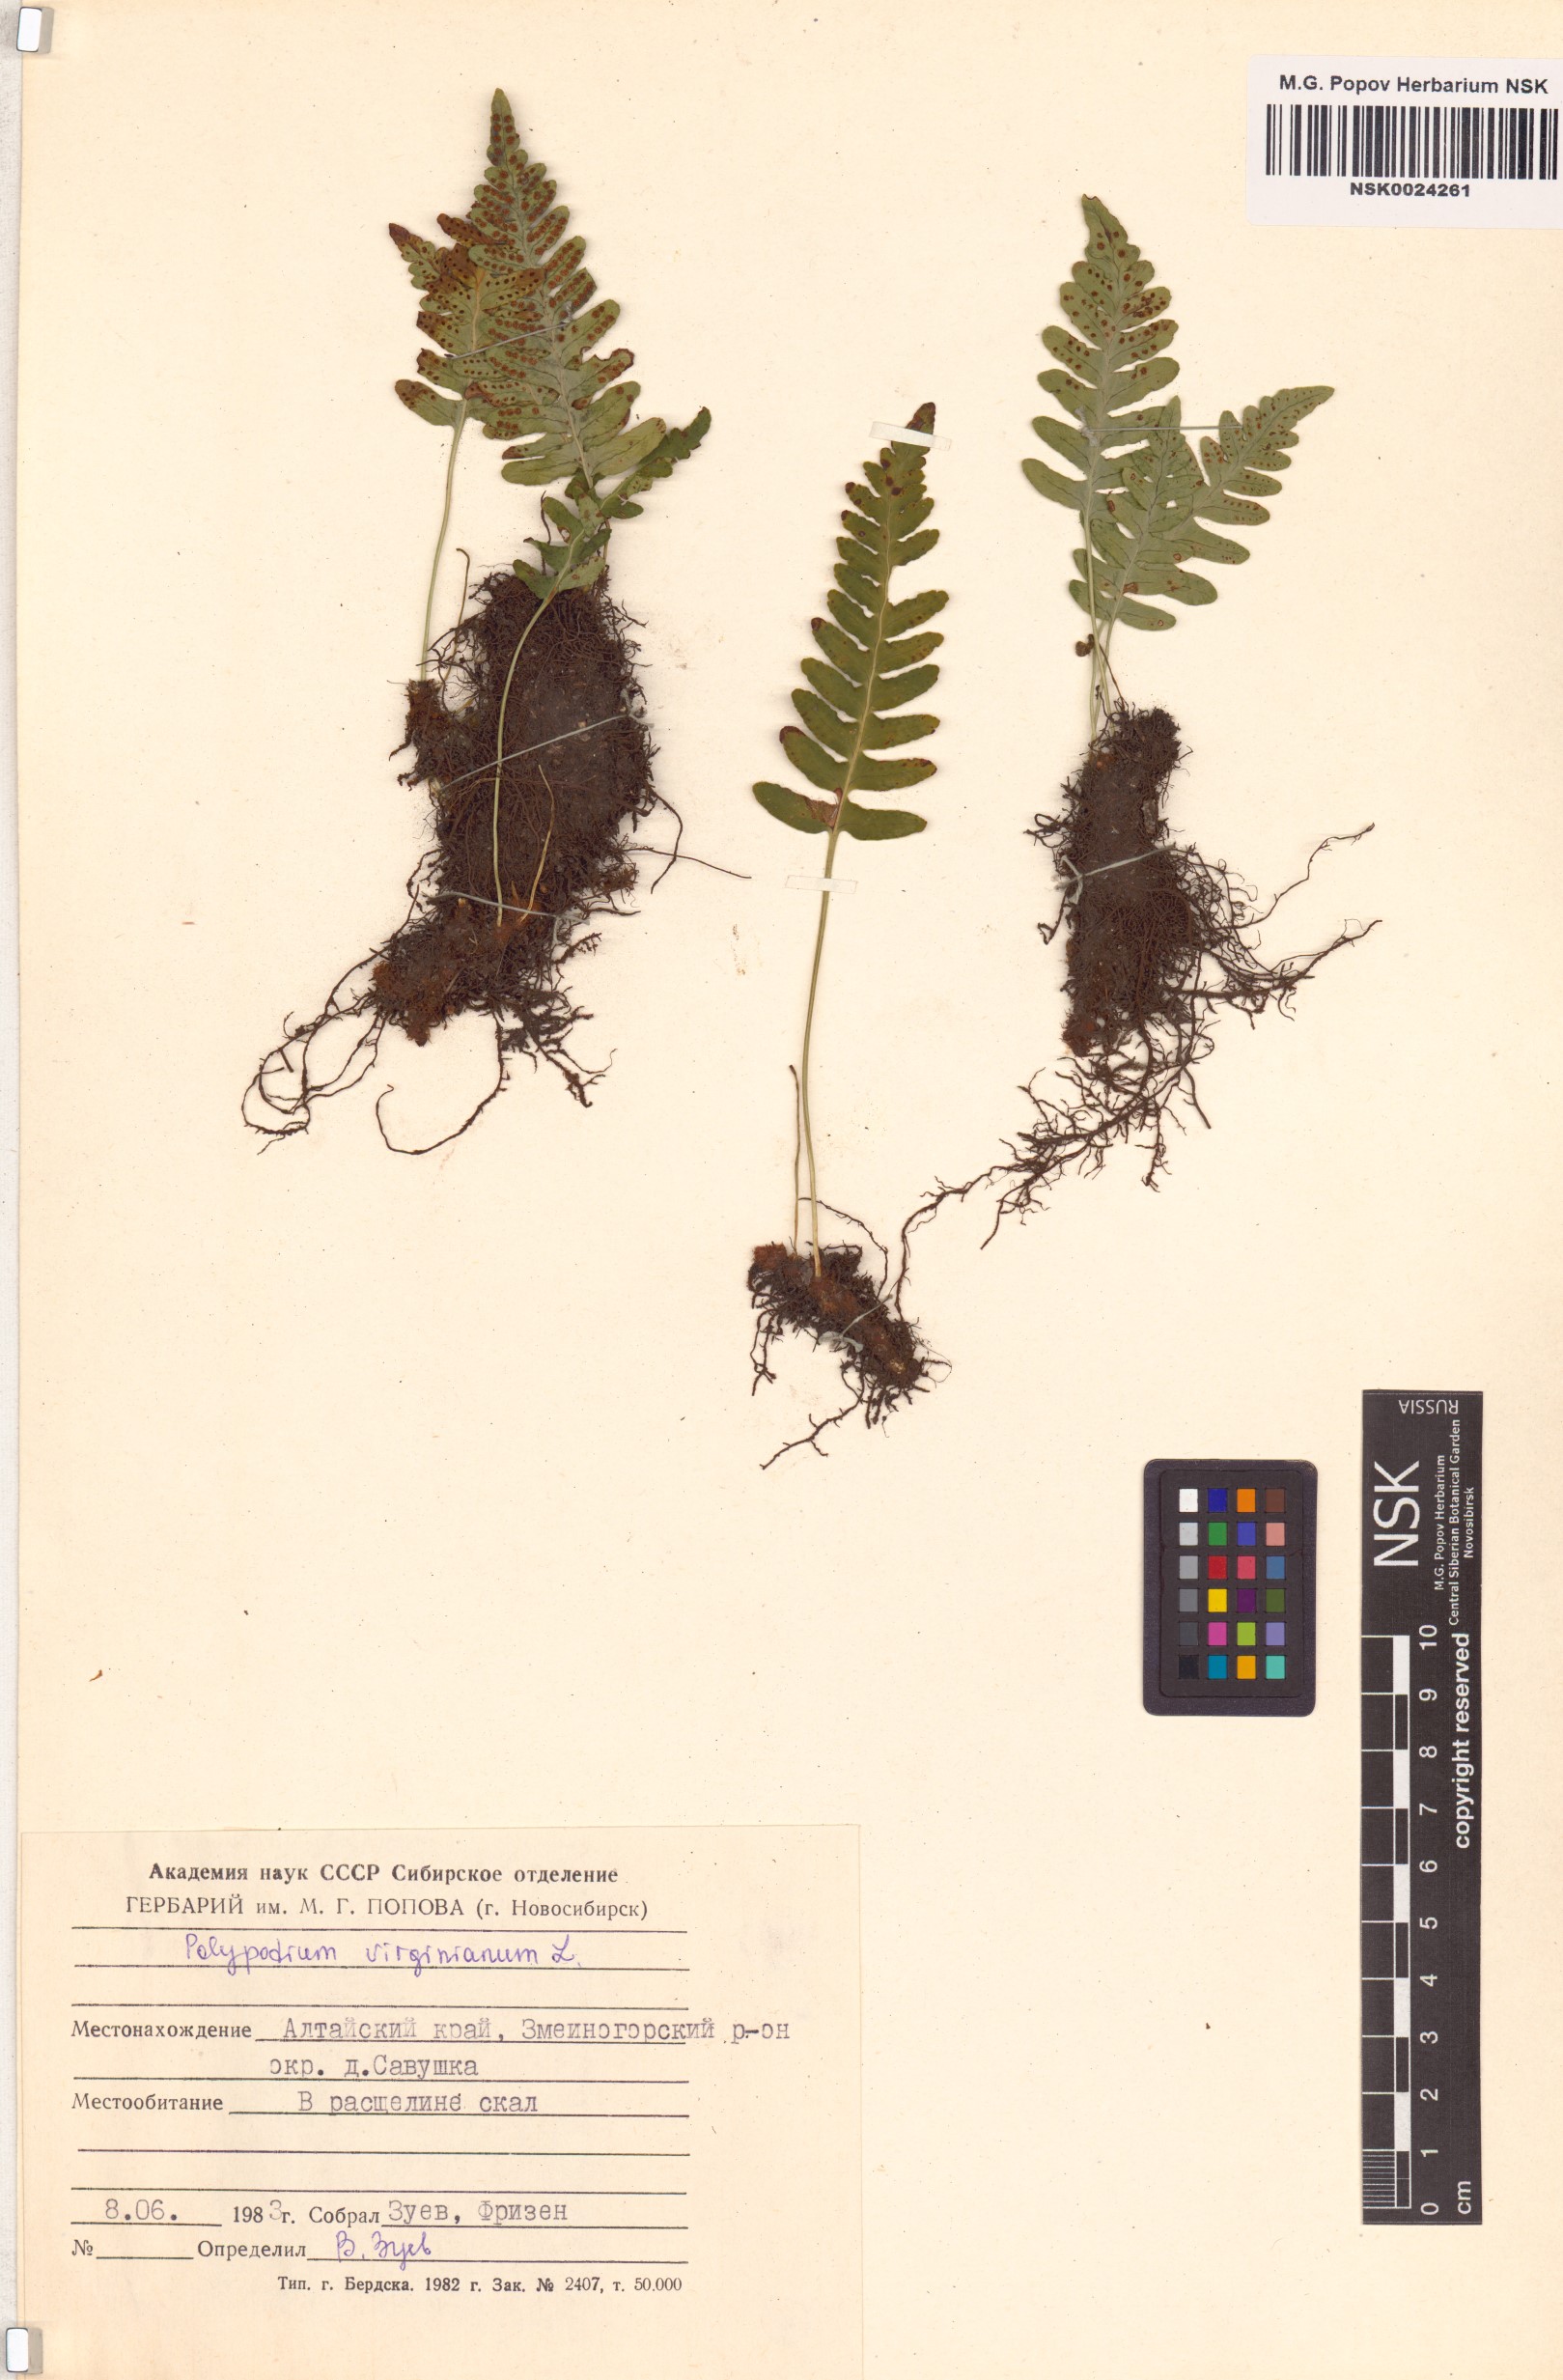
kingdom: Plantae
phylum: Tracheophyta
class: Polypodiopsida
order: Polypodiales
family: Polypodiaceae
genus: Polypodium
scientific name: Polypodium virginianum
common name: American wall fern
